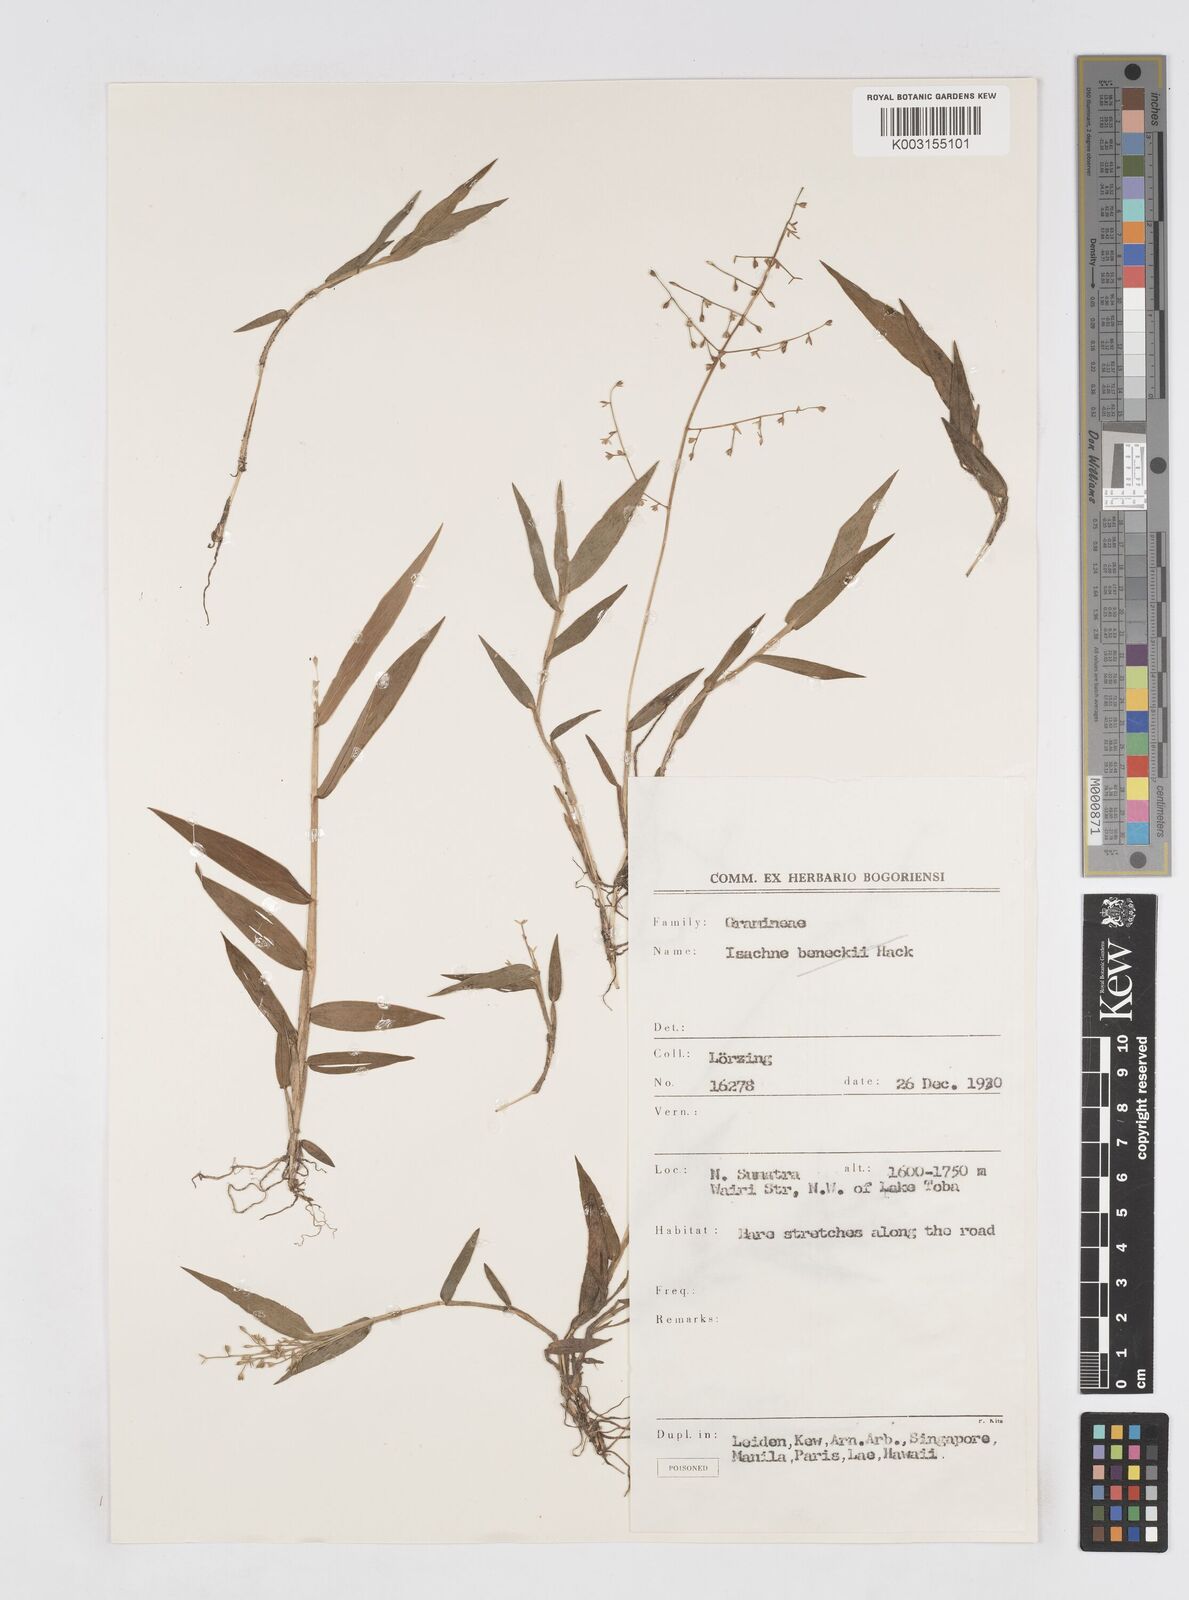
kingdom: Plantae
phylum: Tracheophyta
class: Liliopsida
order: Poales
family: Poaceae
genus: Isachne
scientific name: Isachne
